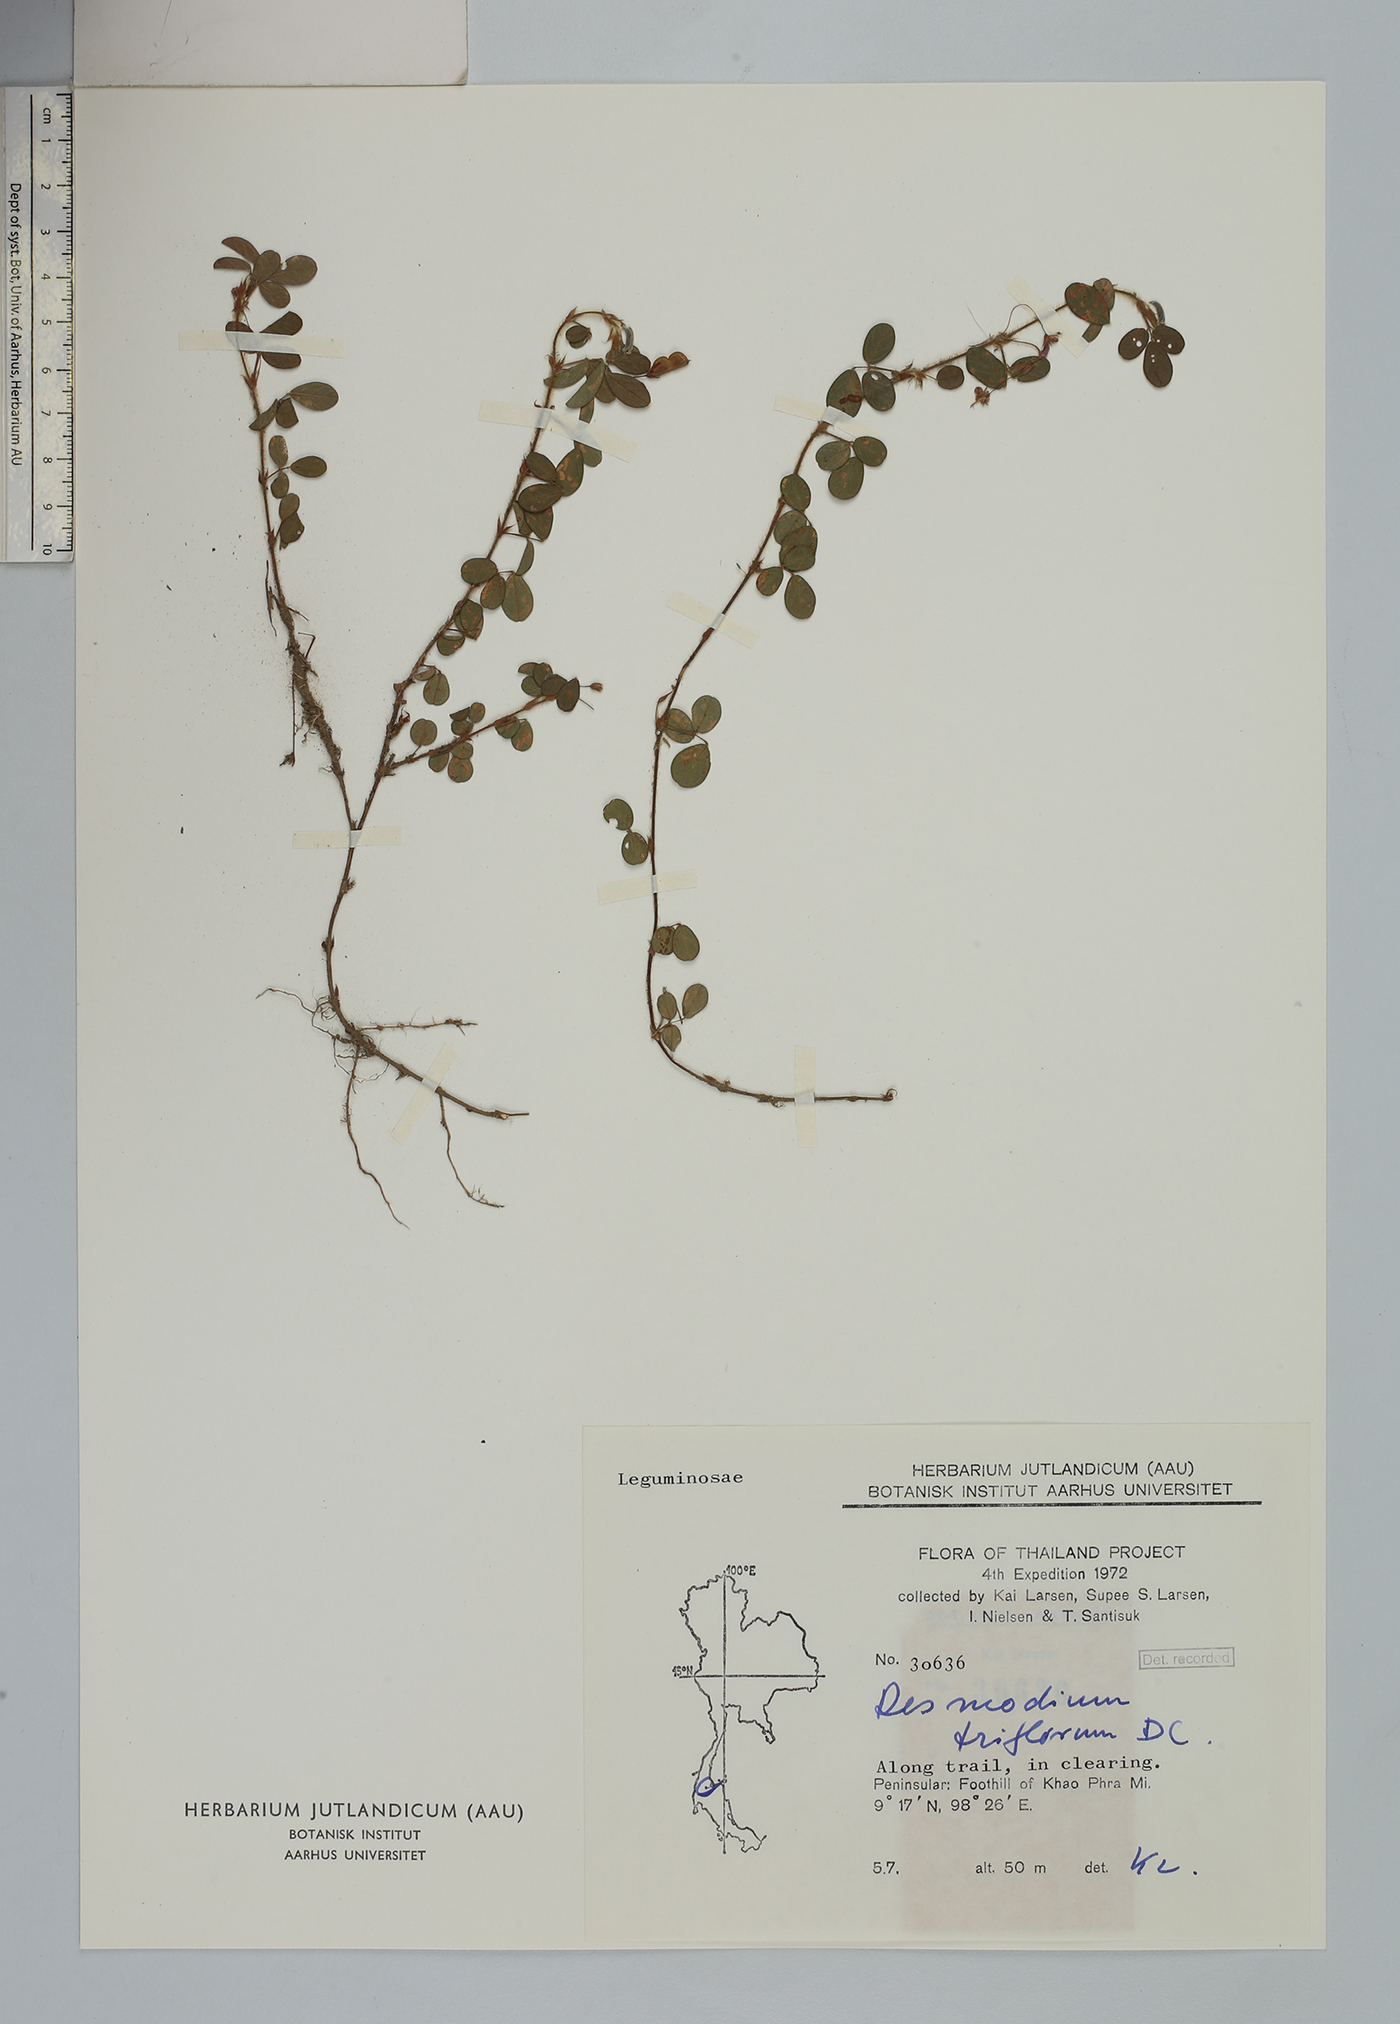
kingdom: Plantae
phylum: Tracheophyta
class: Magnoliopsida
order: Fabales
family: Fabaceae
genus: Grona
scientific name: Grona heterophylla
